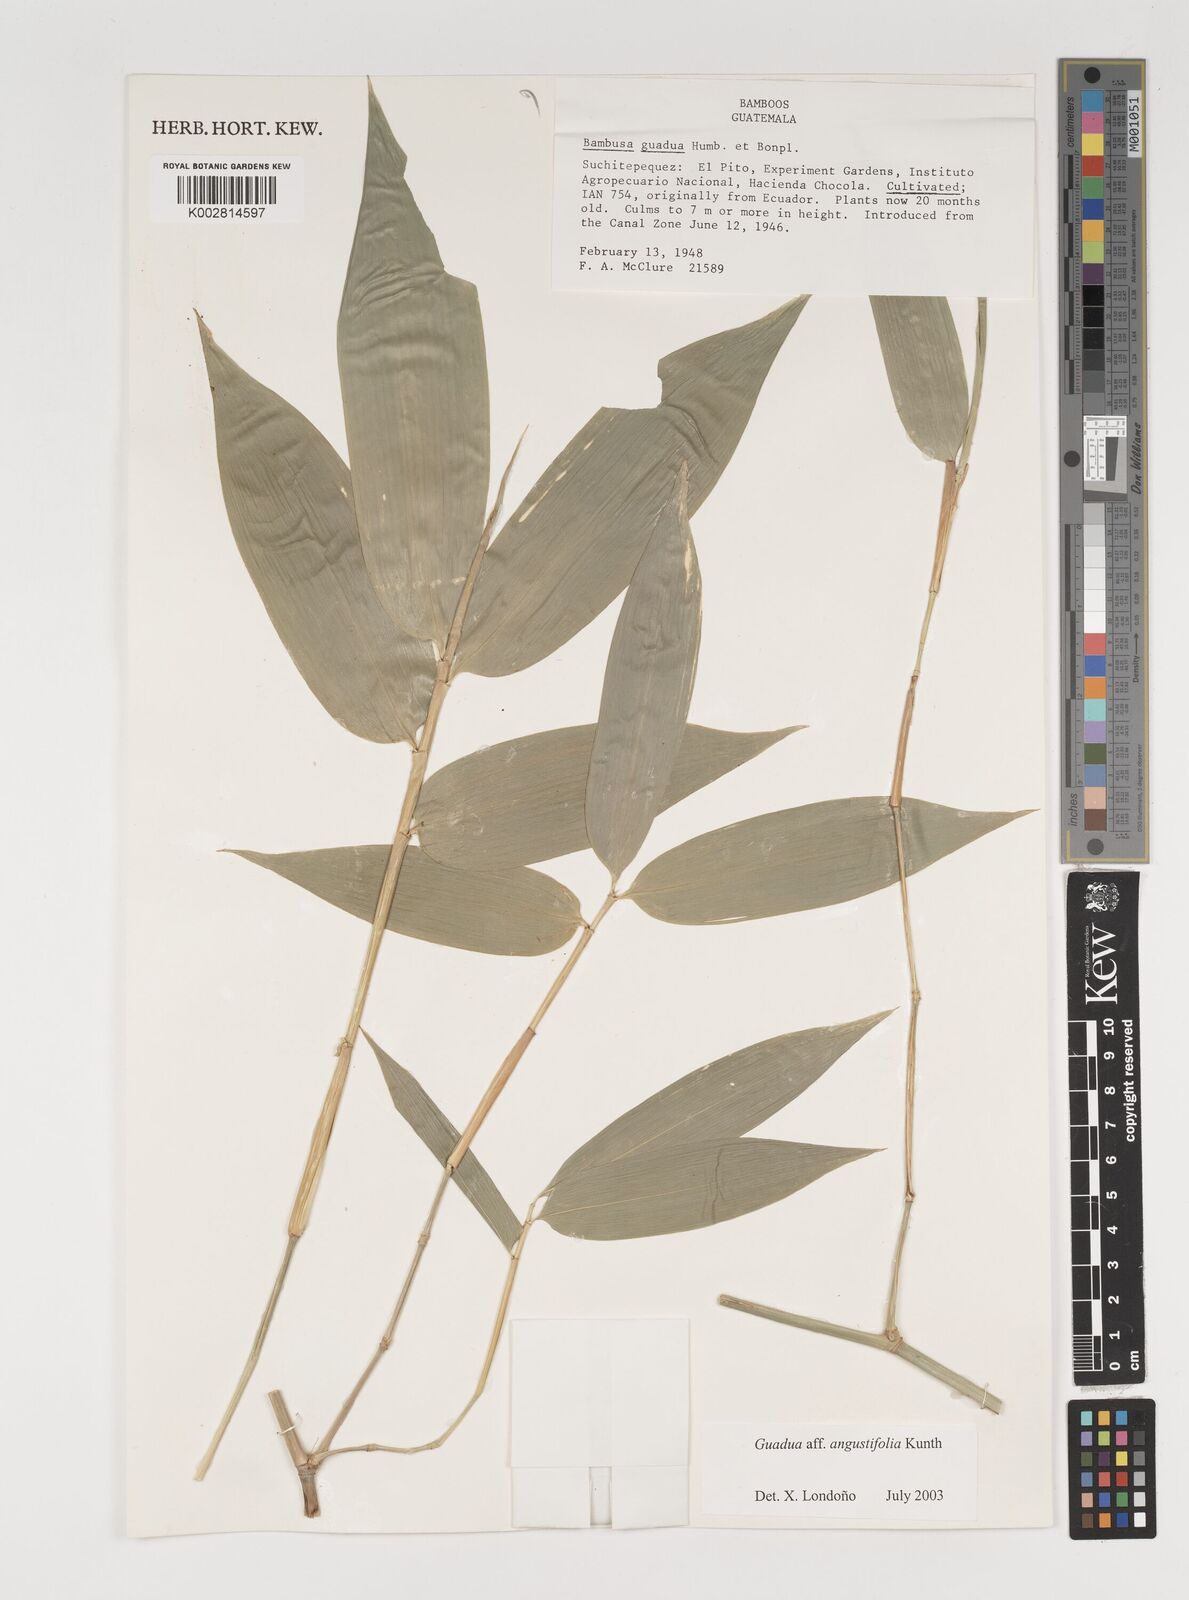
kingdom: Plantae
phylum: Tracheophyta
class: Liliopsida
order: Poales
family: Poaceae
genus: Guadua
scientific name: Guadua angustifolia
